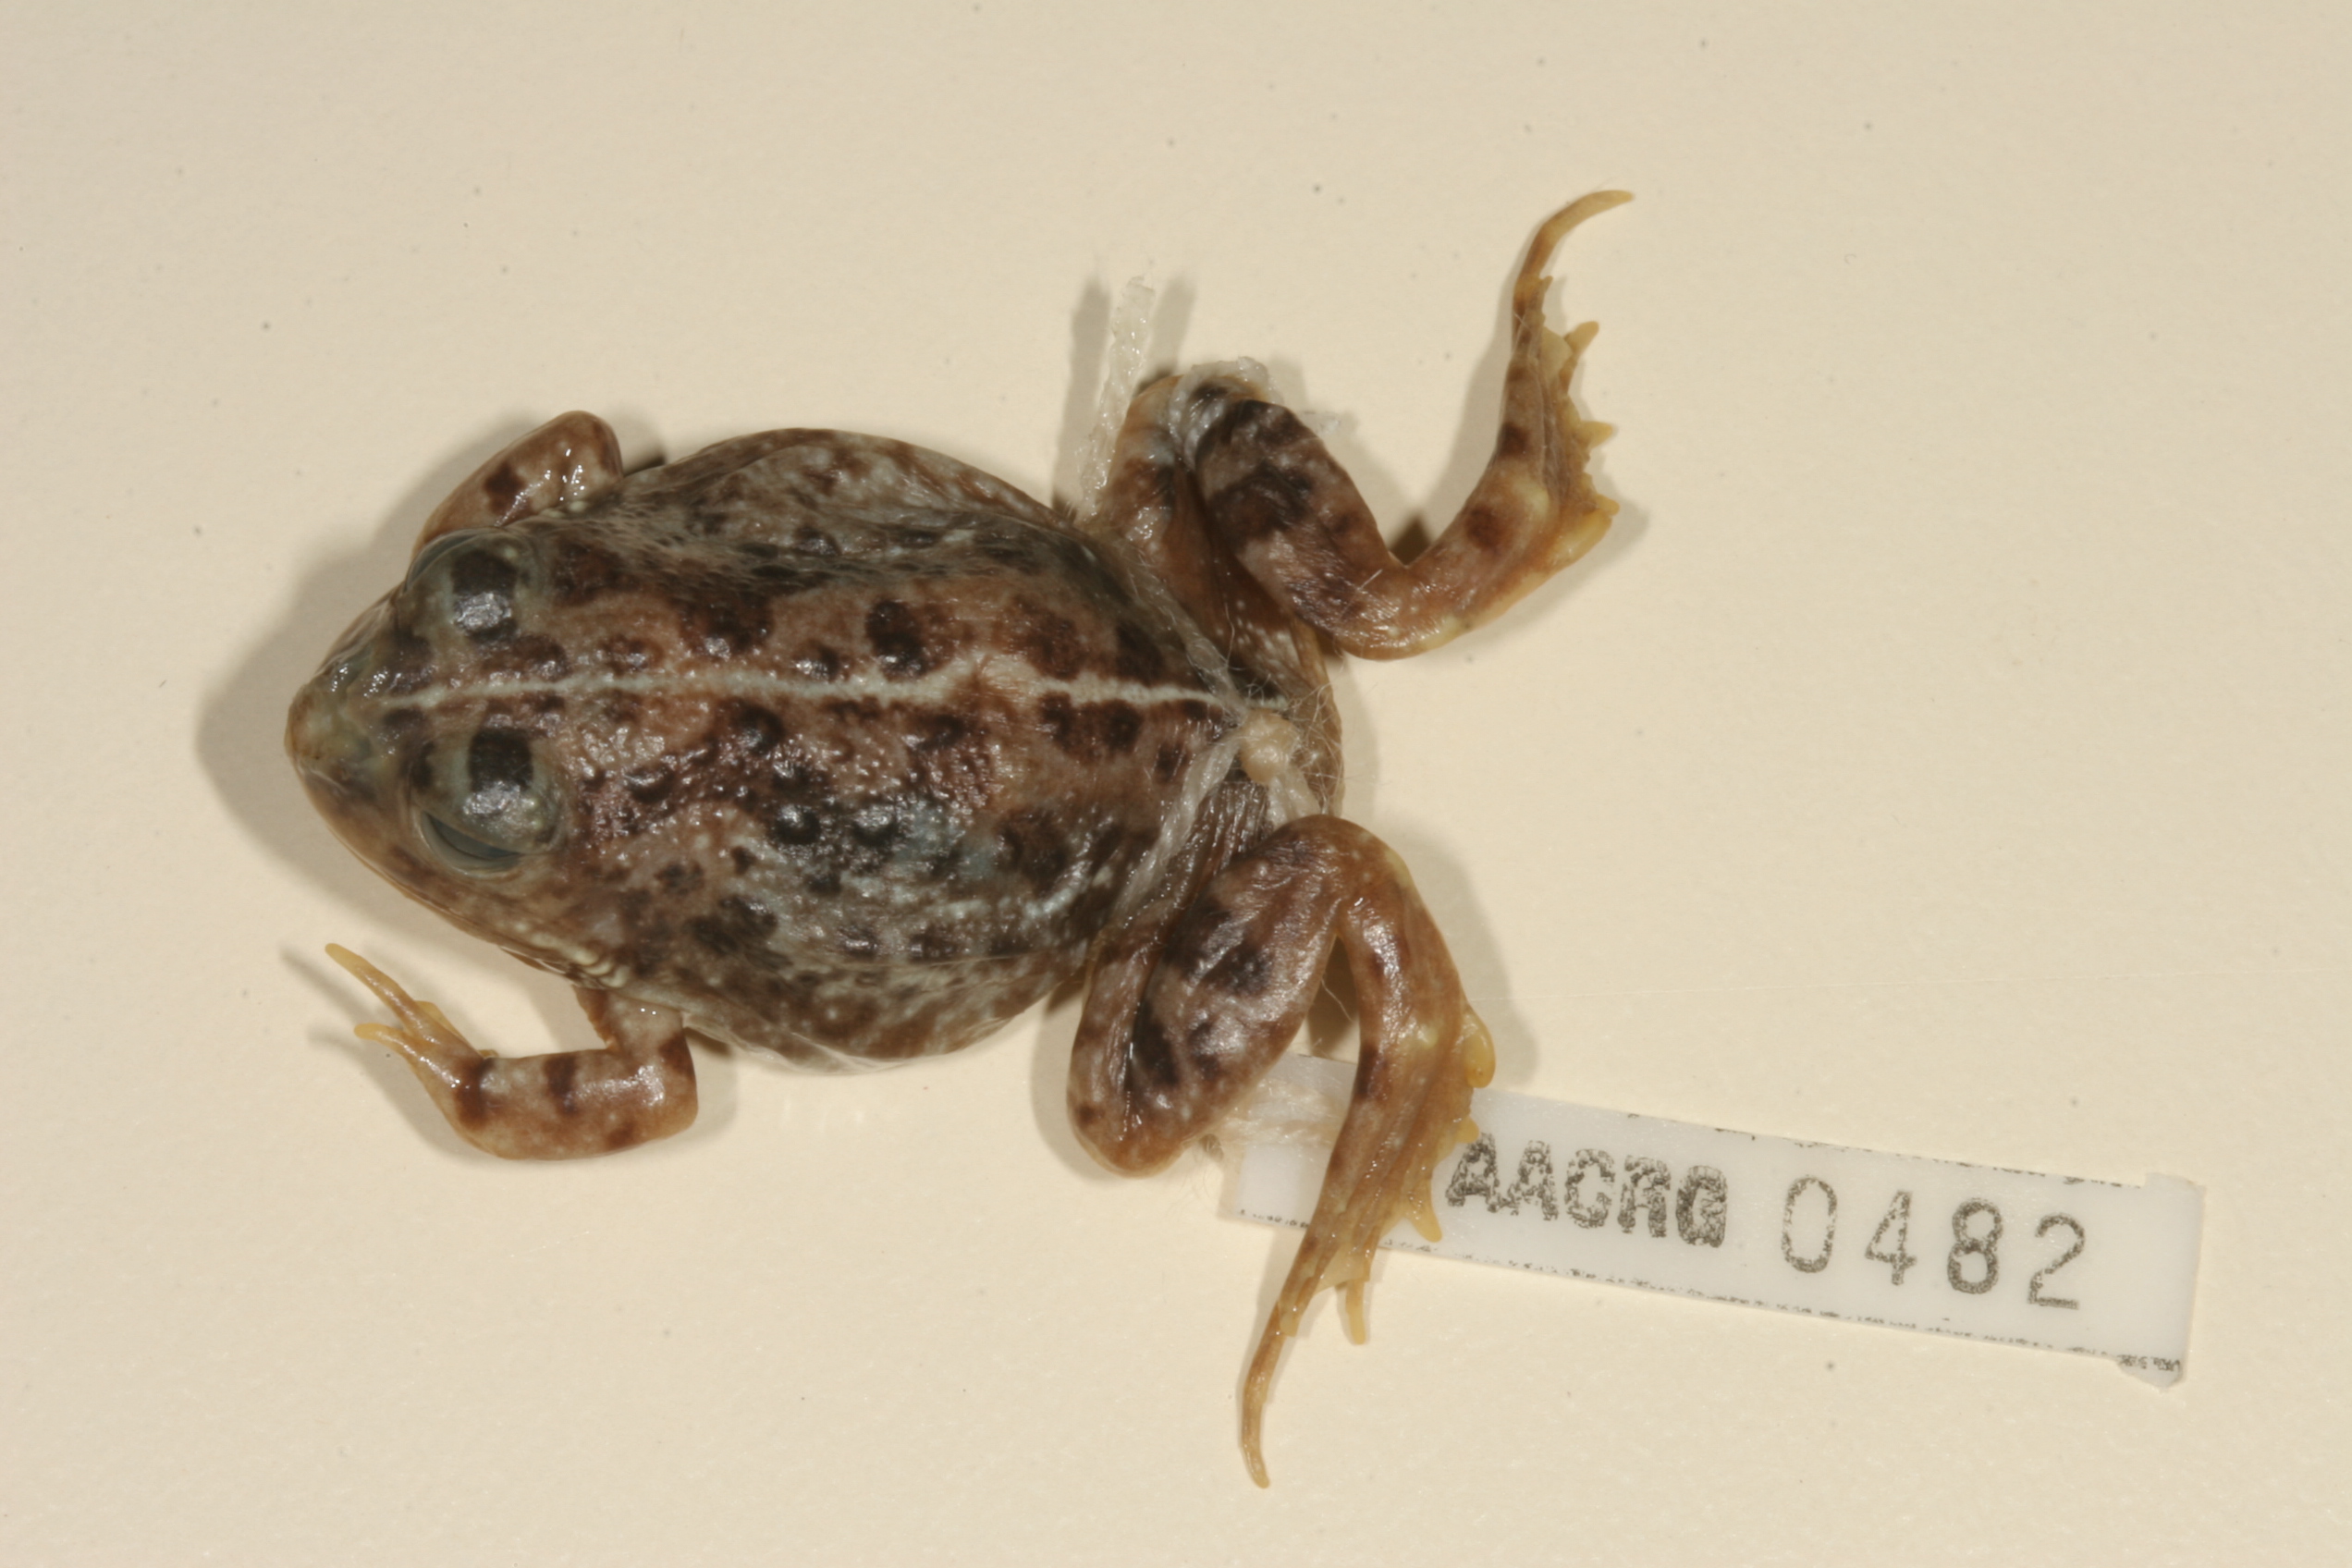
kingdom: Animalia
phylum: Chordata
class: Amphibia
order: Anura
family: Pyxicephalidae
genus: Tomopterna
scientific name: Tomopterna delalandii
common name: Delalande's burrowing bullfrog
